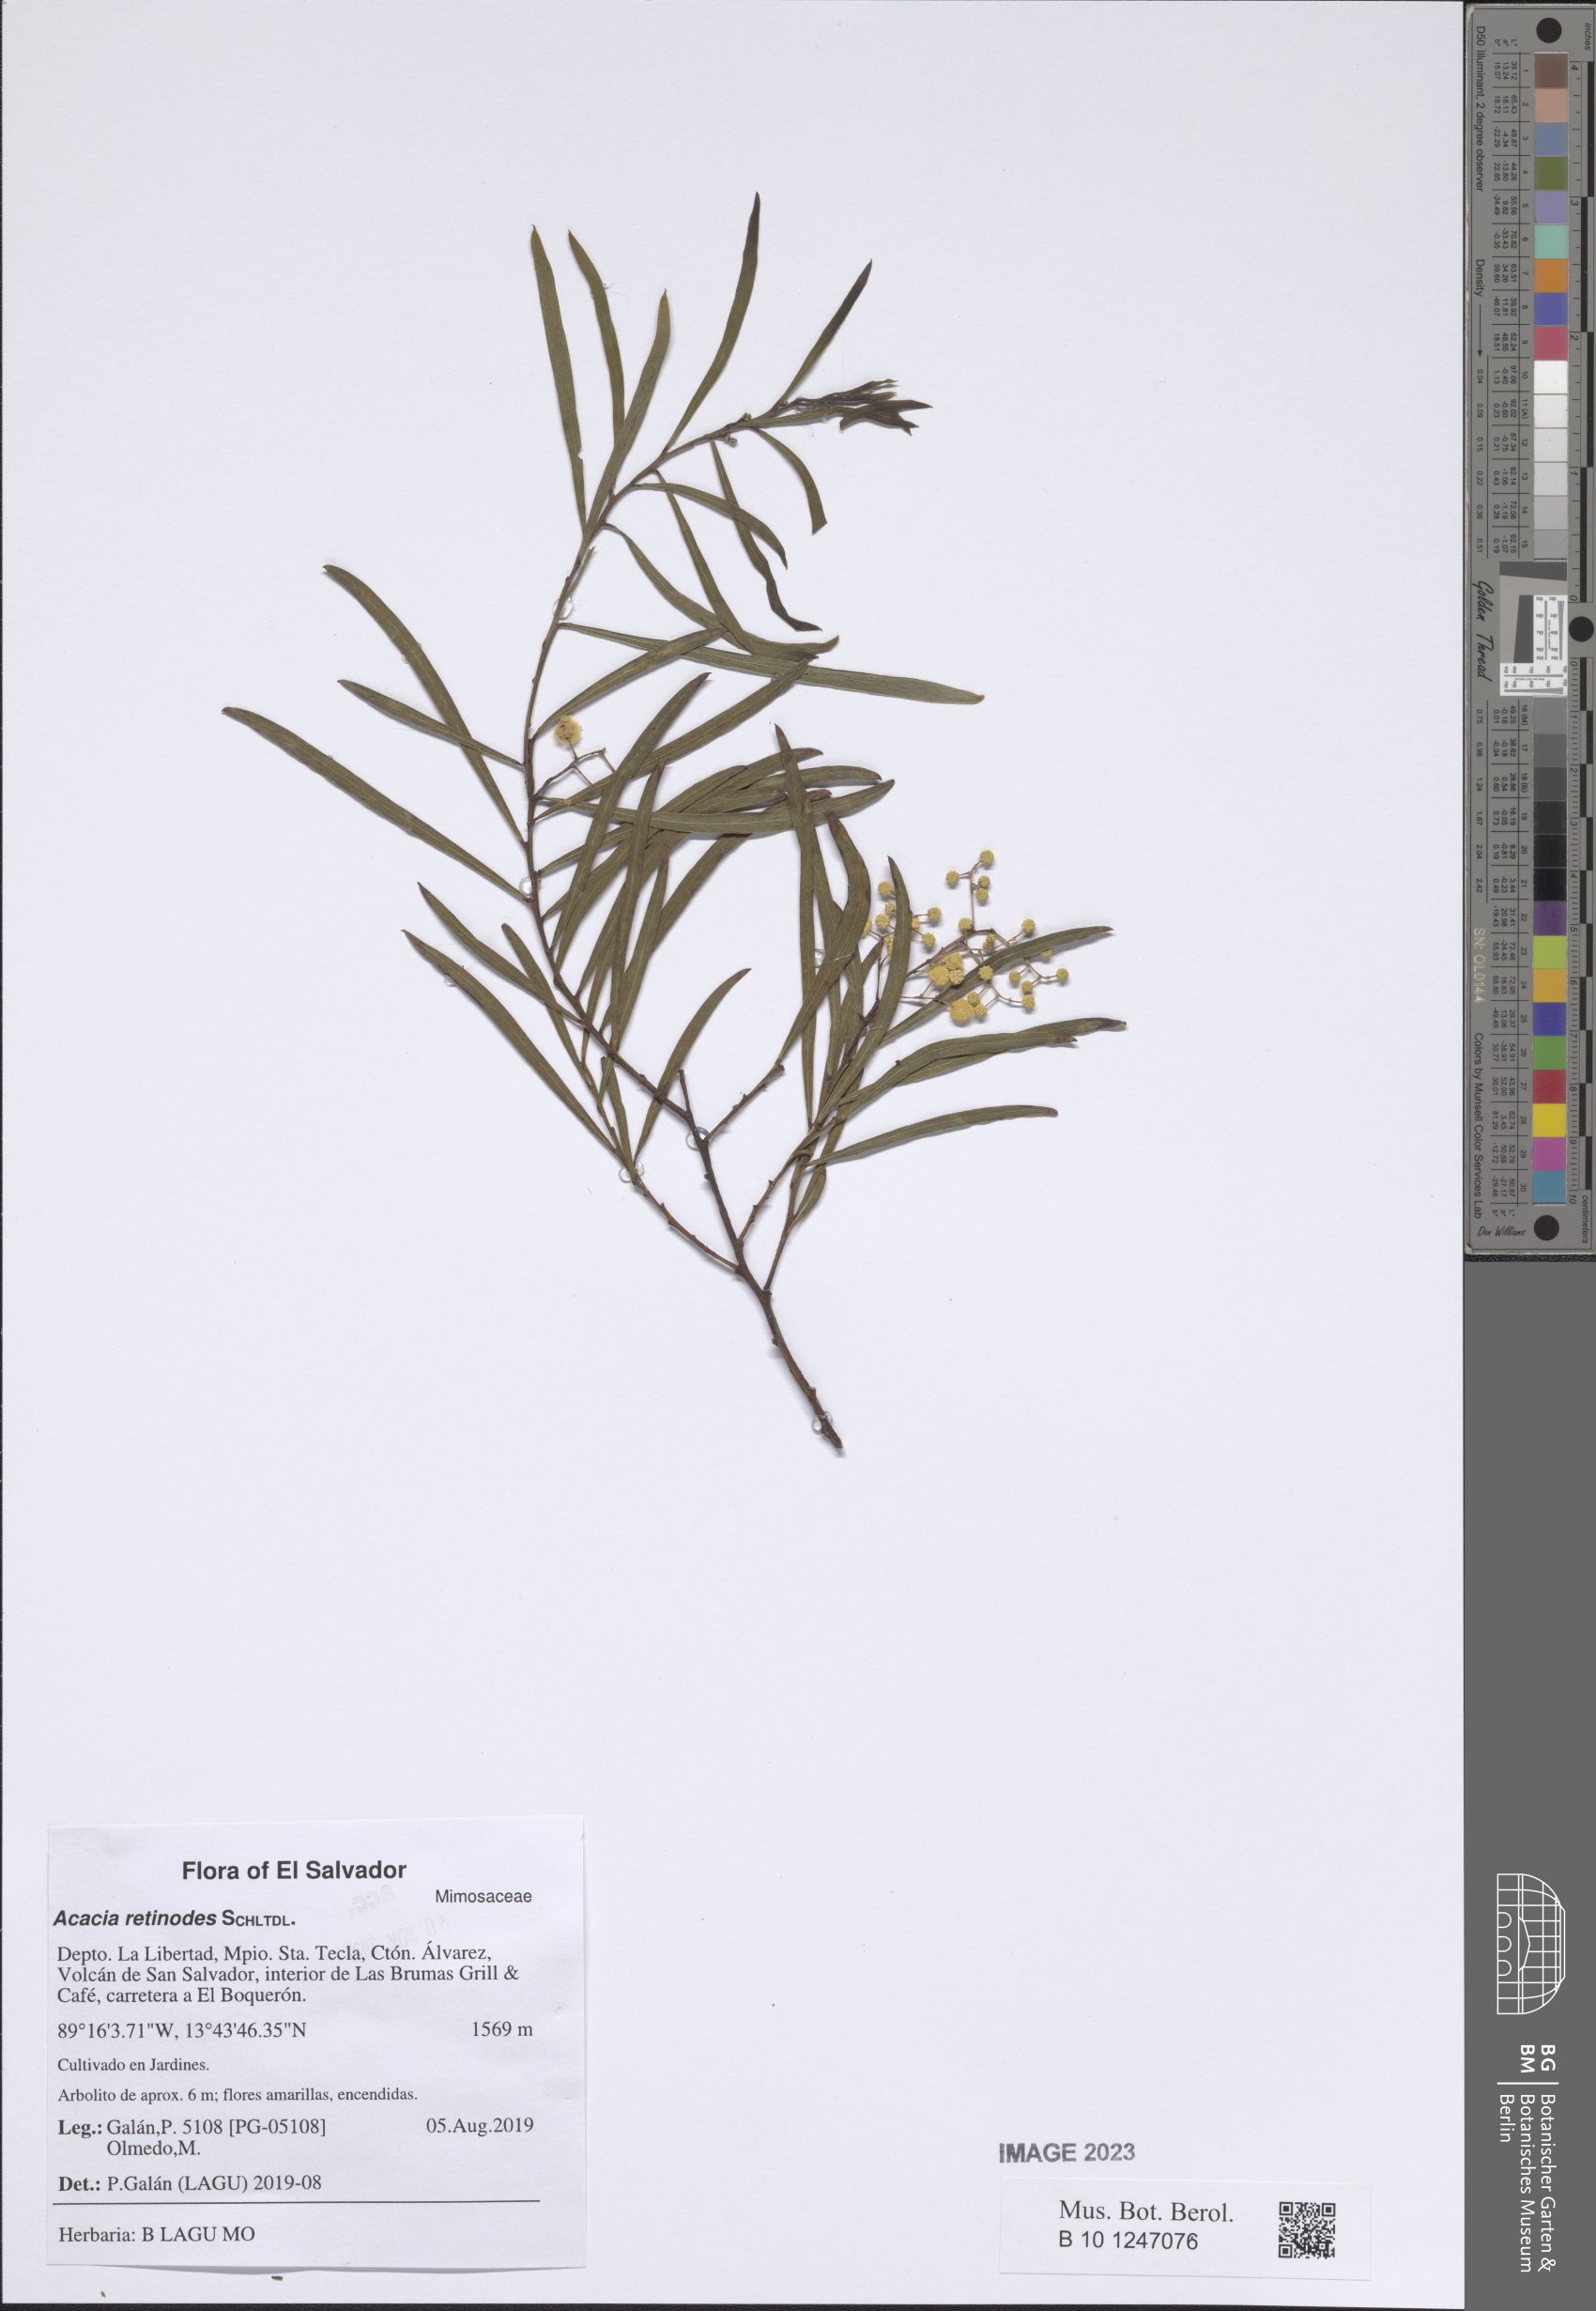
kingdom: Plantae
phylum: Tracheophyta
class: Magnoliopsida
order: Fabales
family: Fabaceae
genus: Acacia
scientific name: Acacia retinodes
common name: Silver wattle
